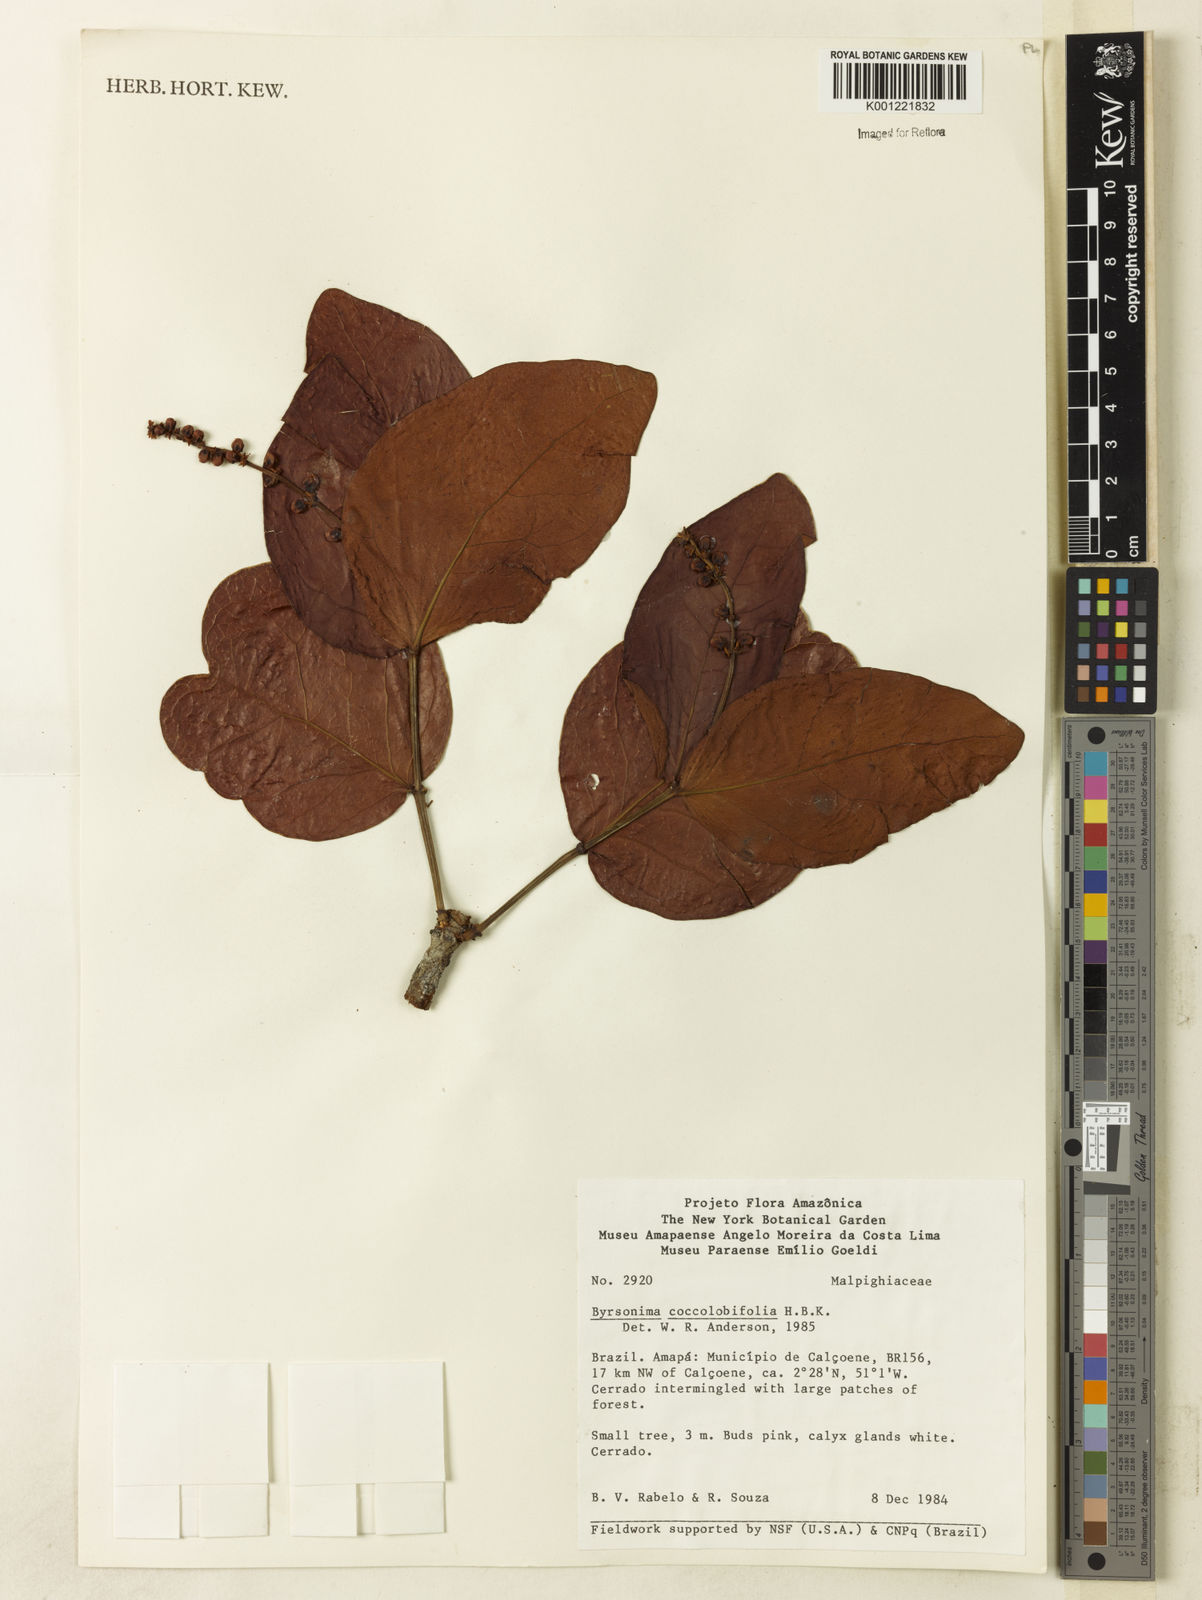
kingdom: Plantae
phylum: Tracheophyta
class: Magnoliopsida
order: Malpighiales
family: Malpighiaceae
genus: Byrsonima
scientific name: Byrsonima coccolobifolia
